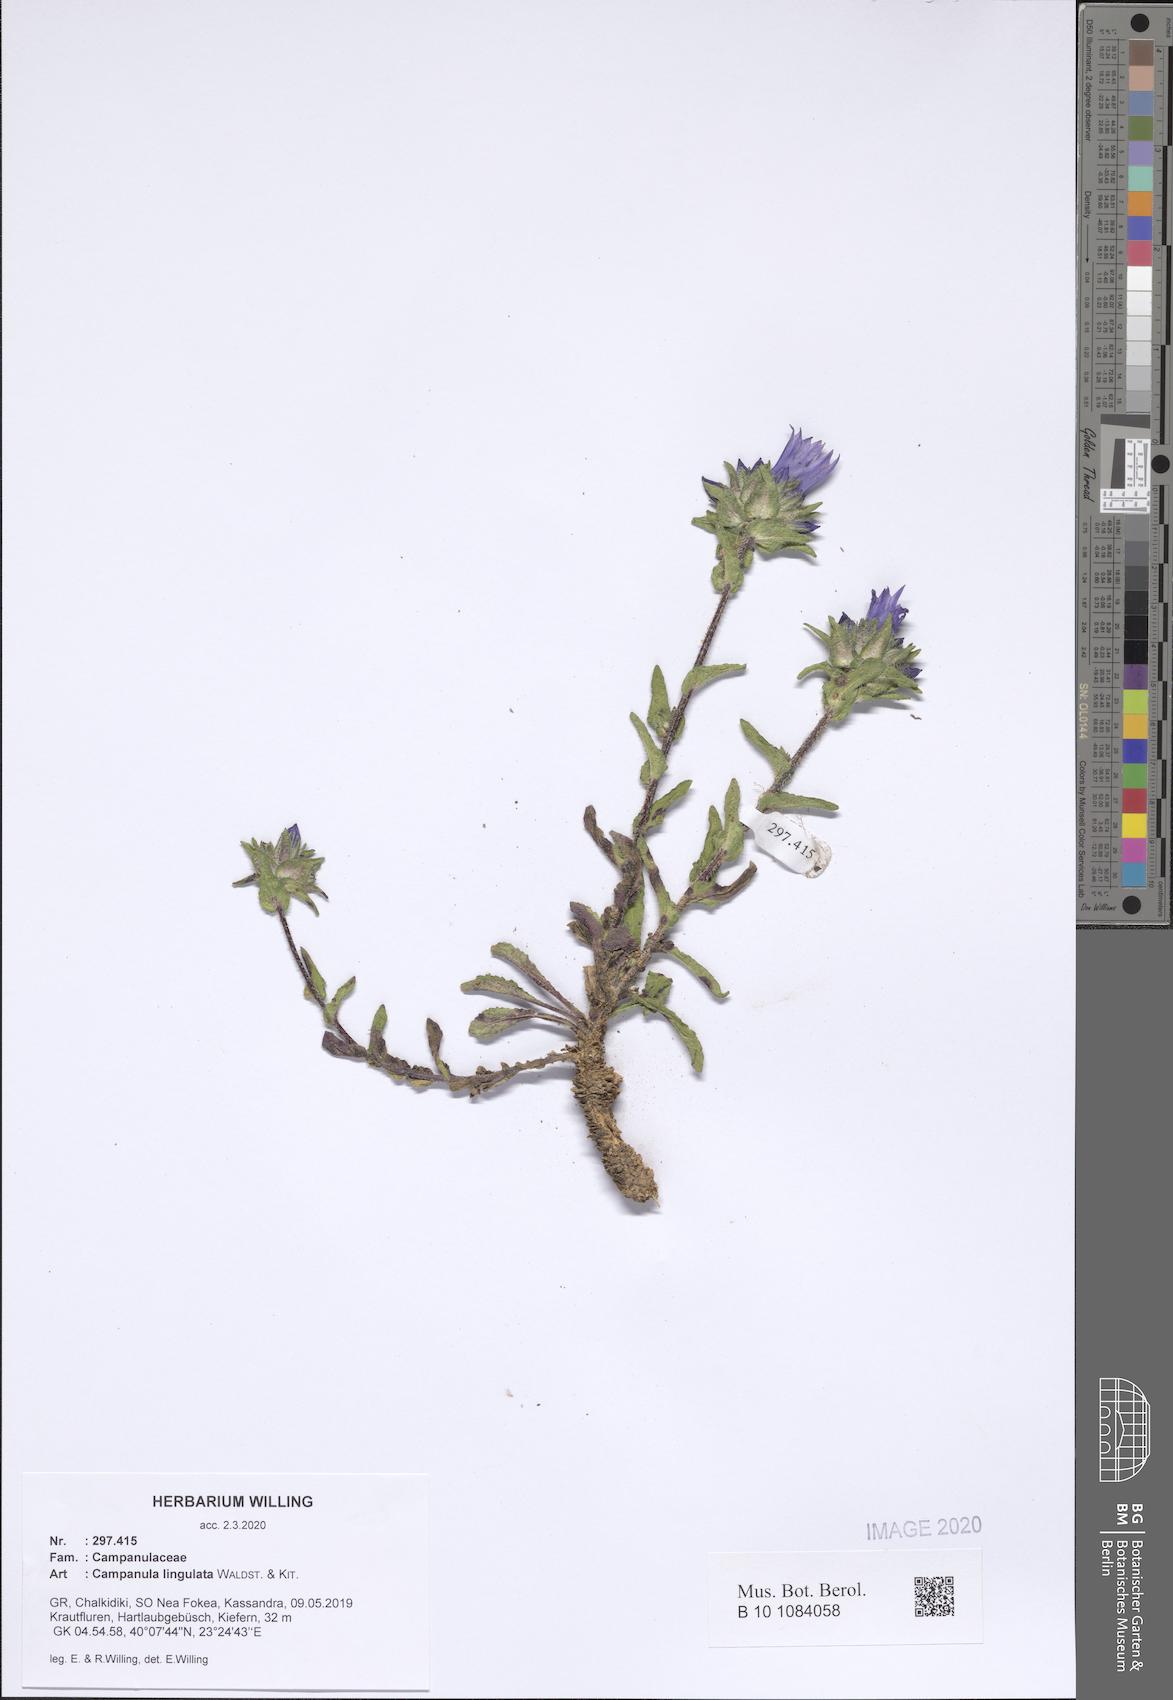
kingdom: Plantae
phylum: Tracheophyta
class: Magnoliopsida
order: Asterales
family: Campanulaceae
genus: Campanula
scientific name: Campanula lingulata
